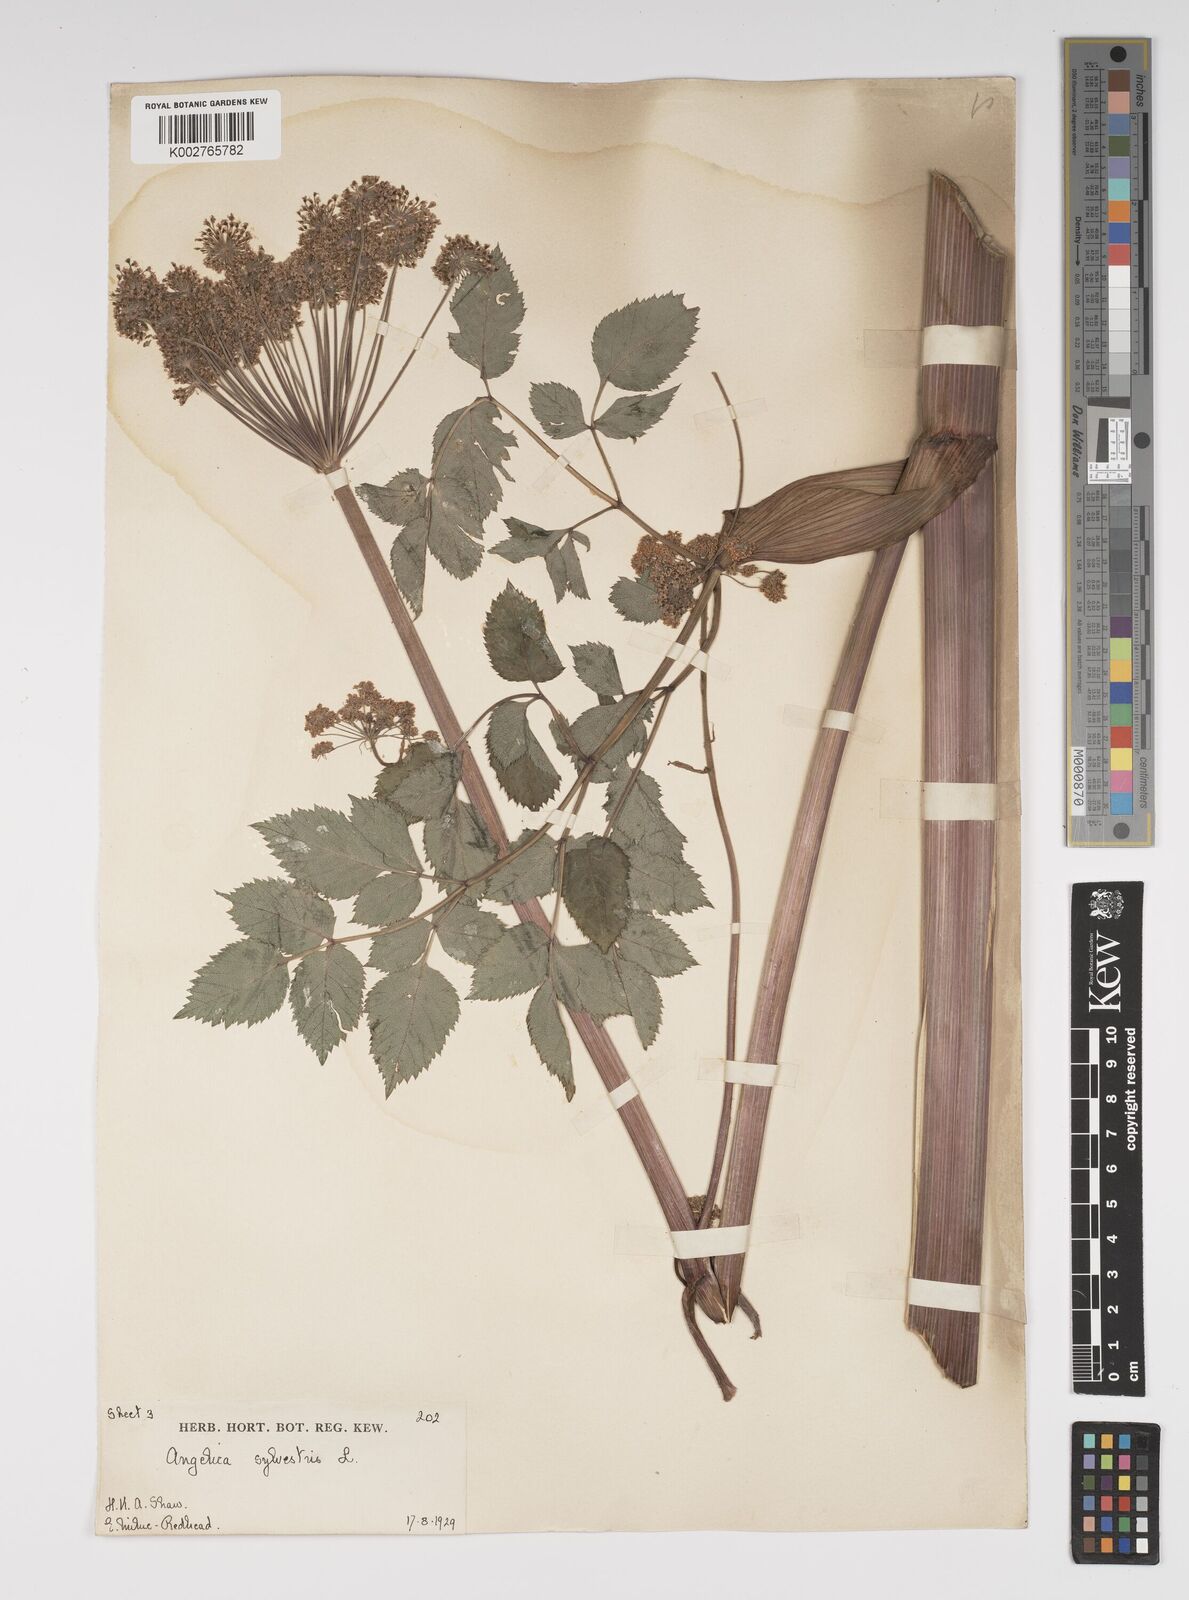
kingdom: Plantae
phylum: Tracheophyta
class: Magnoliopsida
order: Apiales
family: Apiaceae
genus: Angelica
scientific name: Angelica sylvestris
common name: Wild angelica
